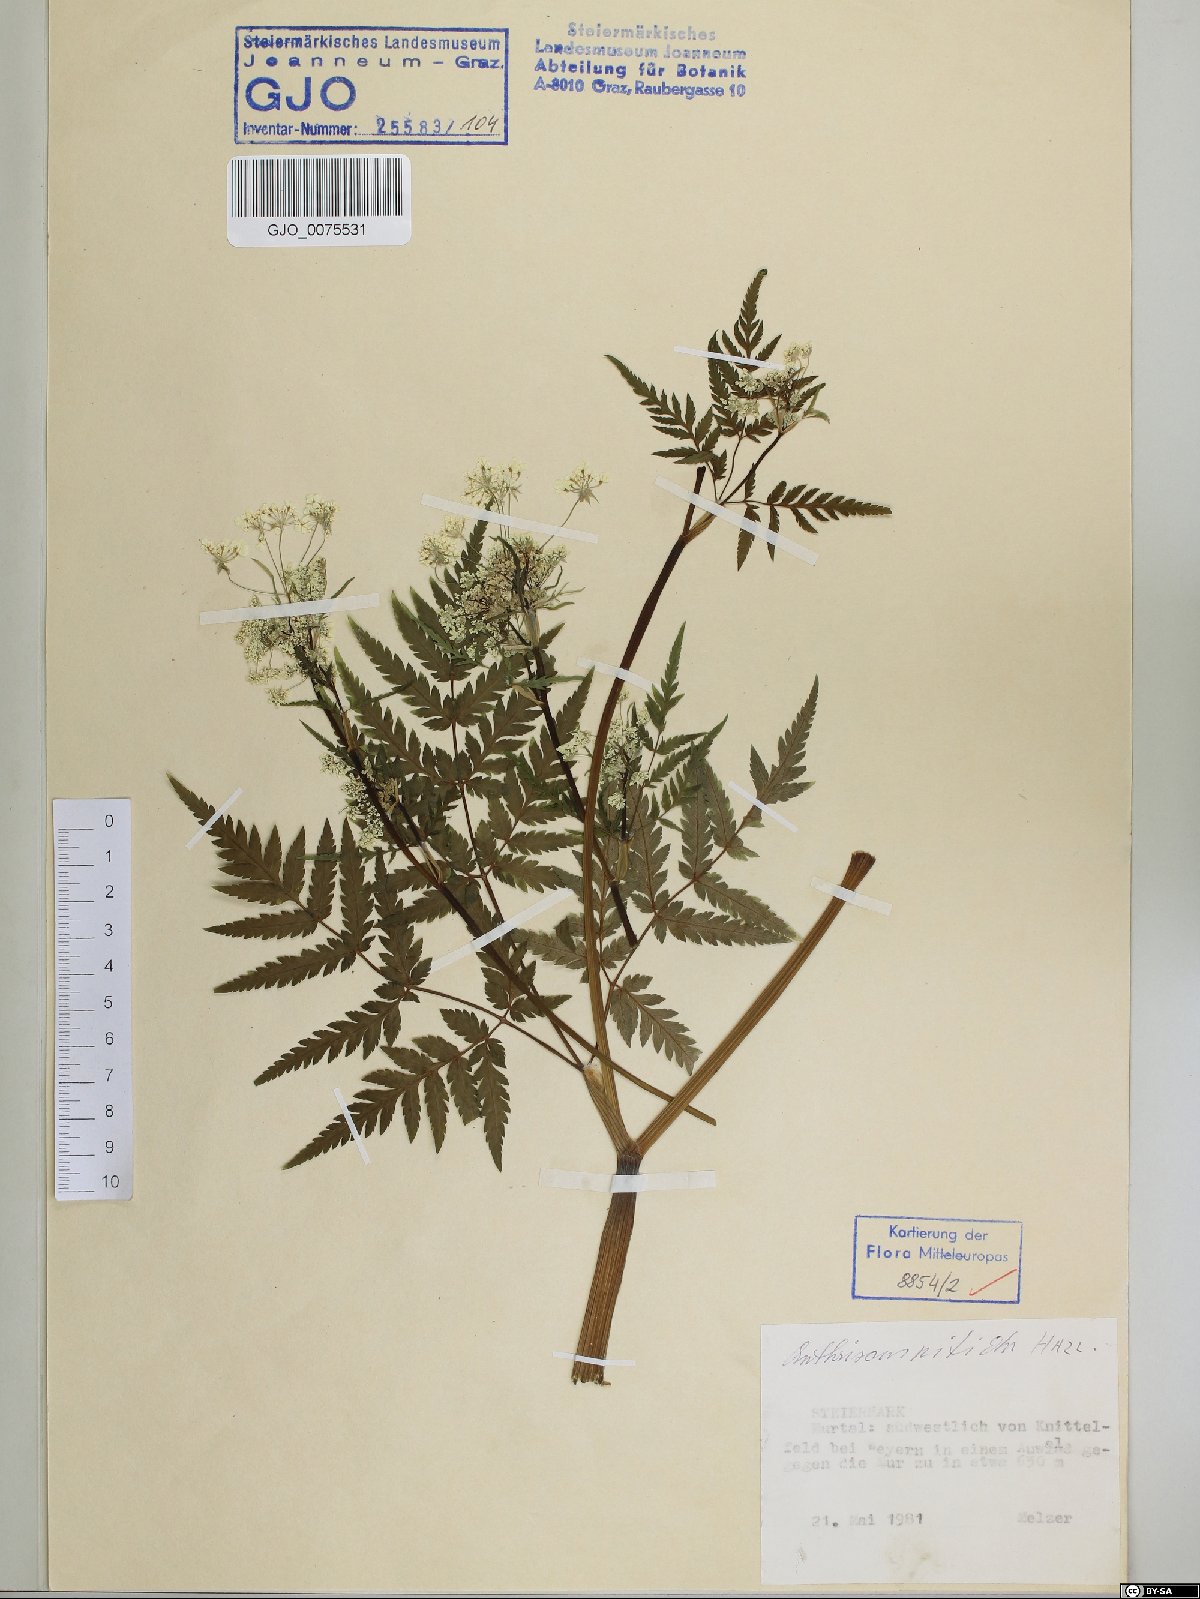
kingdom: Plantae
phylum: Tracheophyta
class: Magnoliopsida
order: Apiales
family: Apiaceae
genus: Anthriscus
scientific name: Anthriscus nitida
